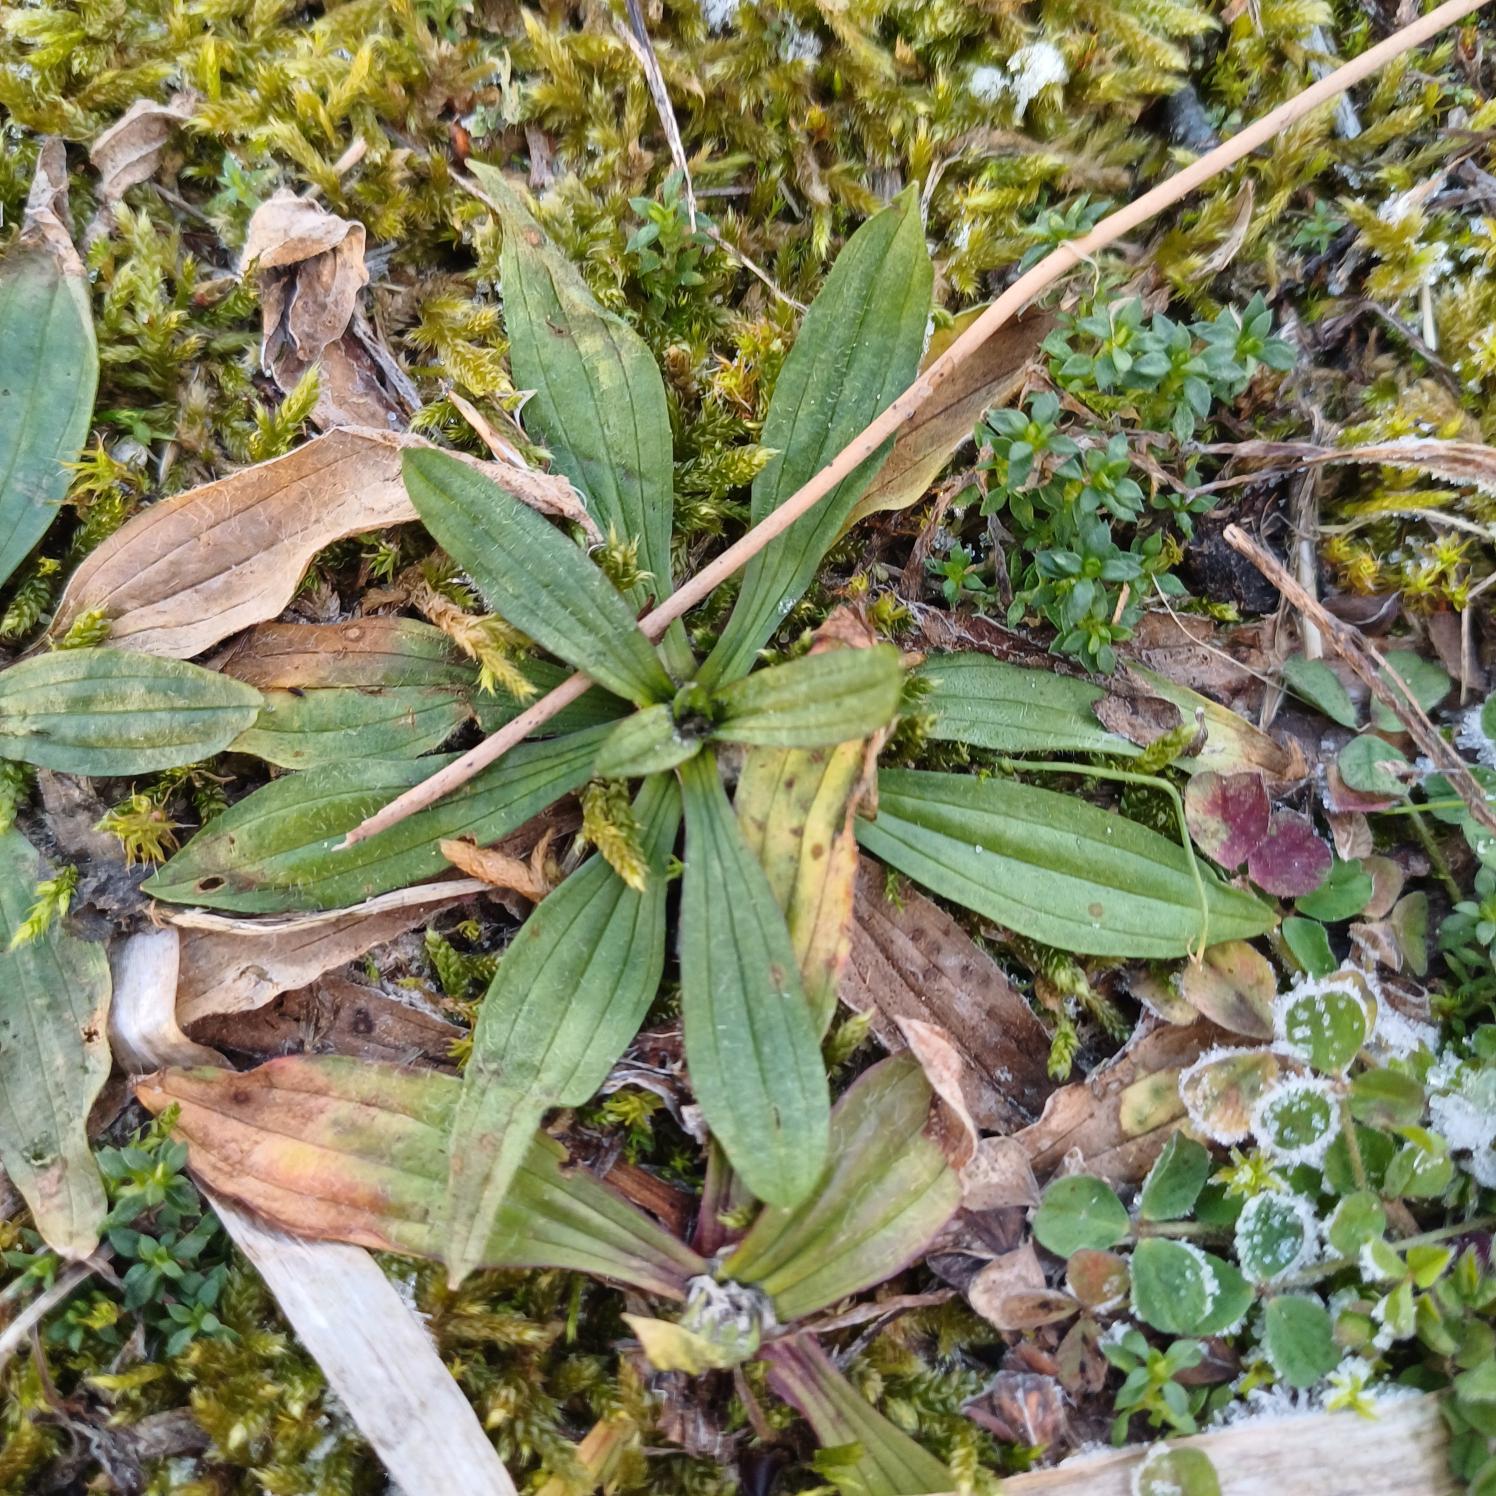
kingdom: Plantae
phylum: Tracheophyta
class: Magnoliopsida
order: Lamiales
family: Plantaginaceae
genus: Plantago
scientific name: Plantago lanceolata
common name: Lancet-vejbred
